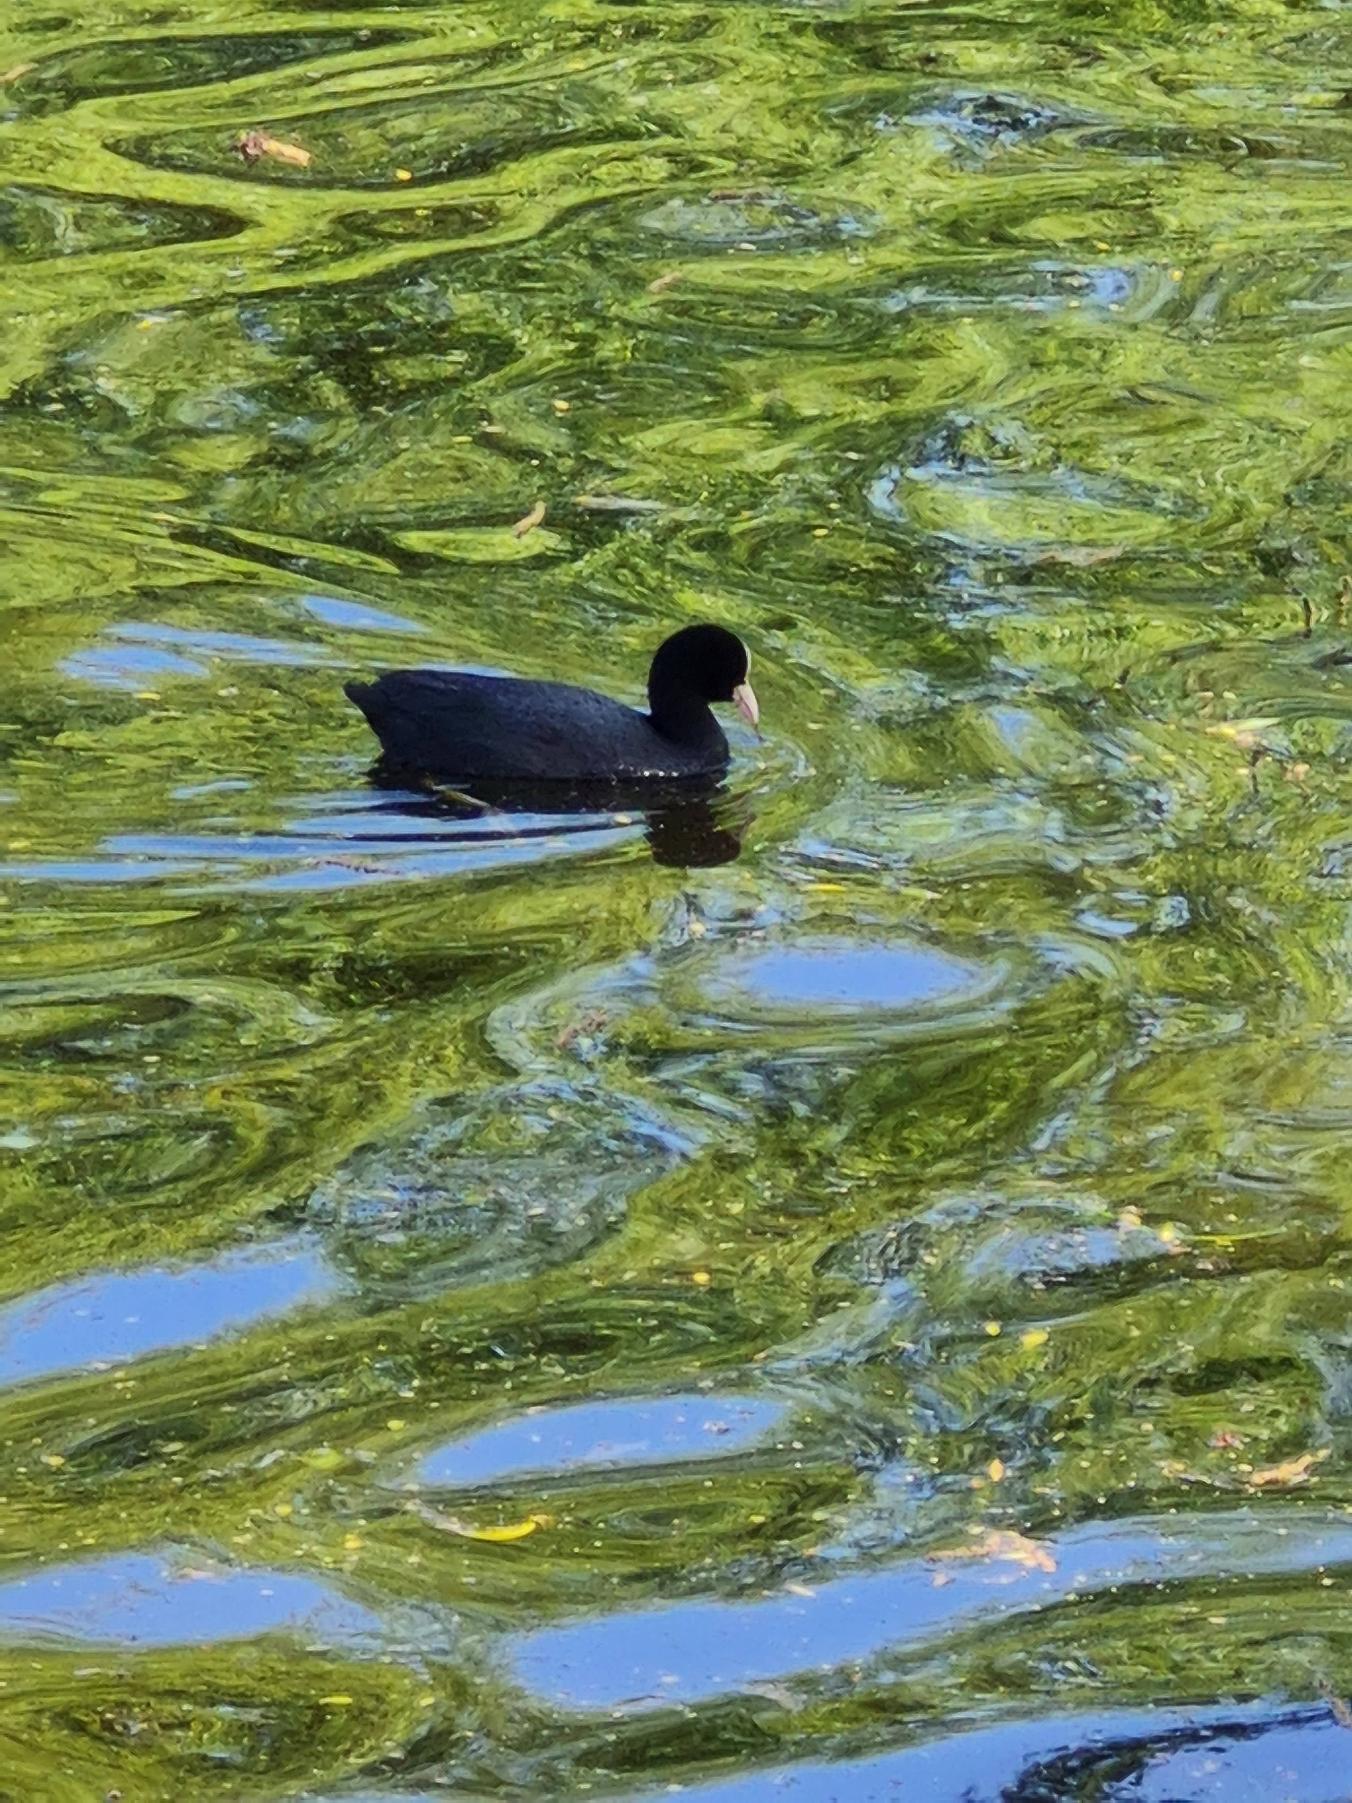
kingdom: Animalia
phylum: Chordata
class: Aves
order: Gruiformes
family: Rallidae
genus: Fulica
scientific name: Fulica atra
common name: Blishøne
